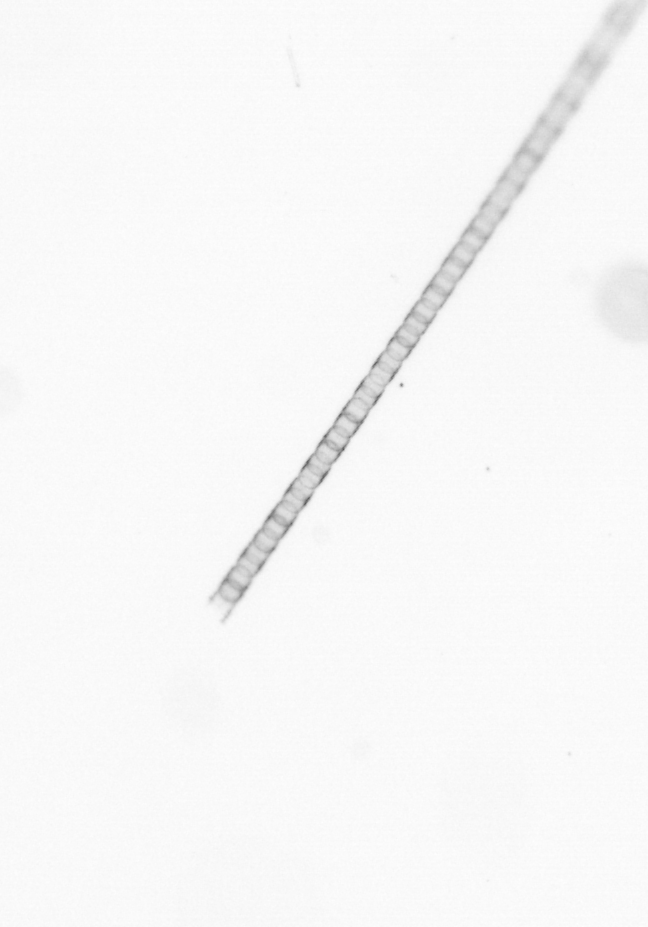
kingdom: Chromista
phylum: Ochrophyta
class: Bacillariophyceae
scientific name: Bacillariophyceae
